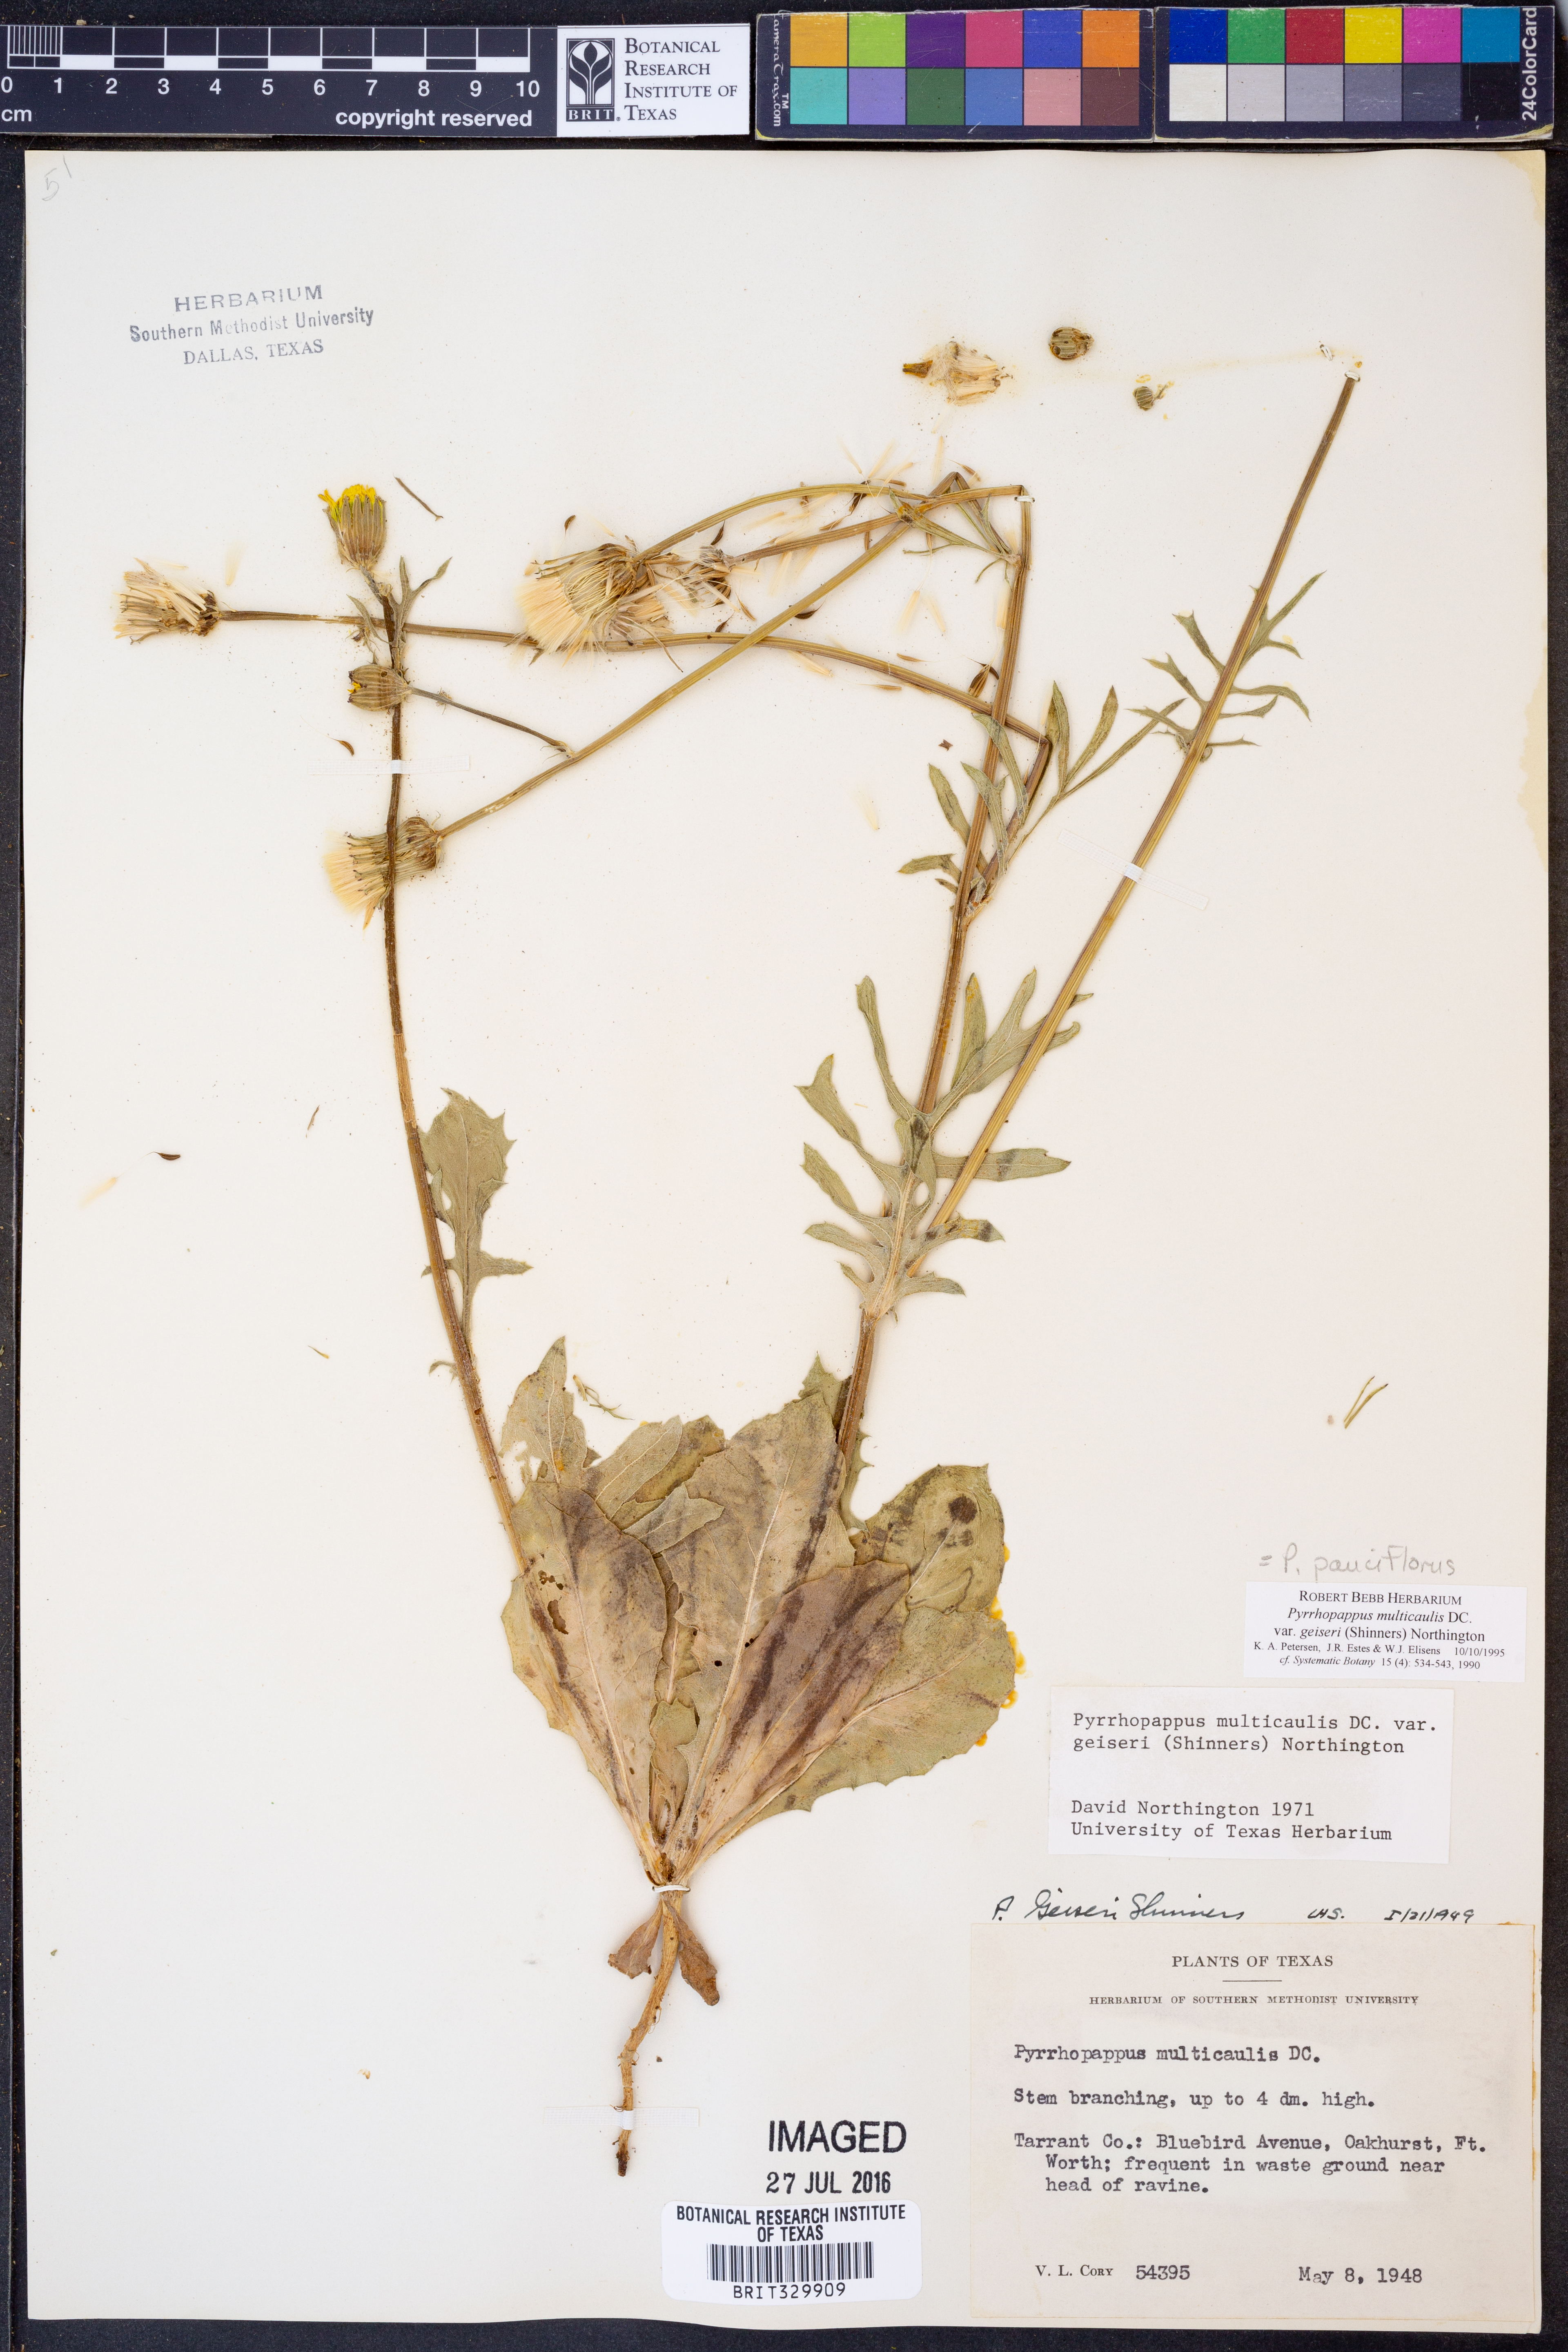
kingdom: Plantae
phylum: Tracheophyta
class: Magnoliopsida
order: Asterales
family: Asteraceae
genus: Pyrrhopappus
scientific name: Pyrrhopappus pauciflorus
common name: Texas false dandelion
